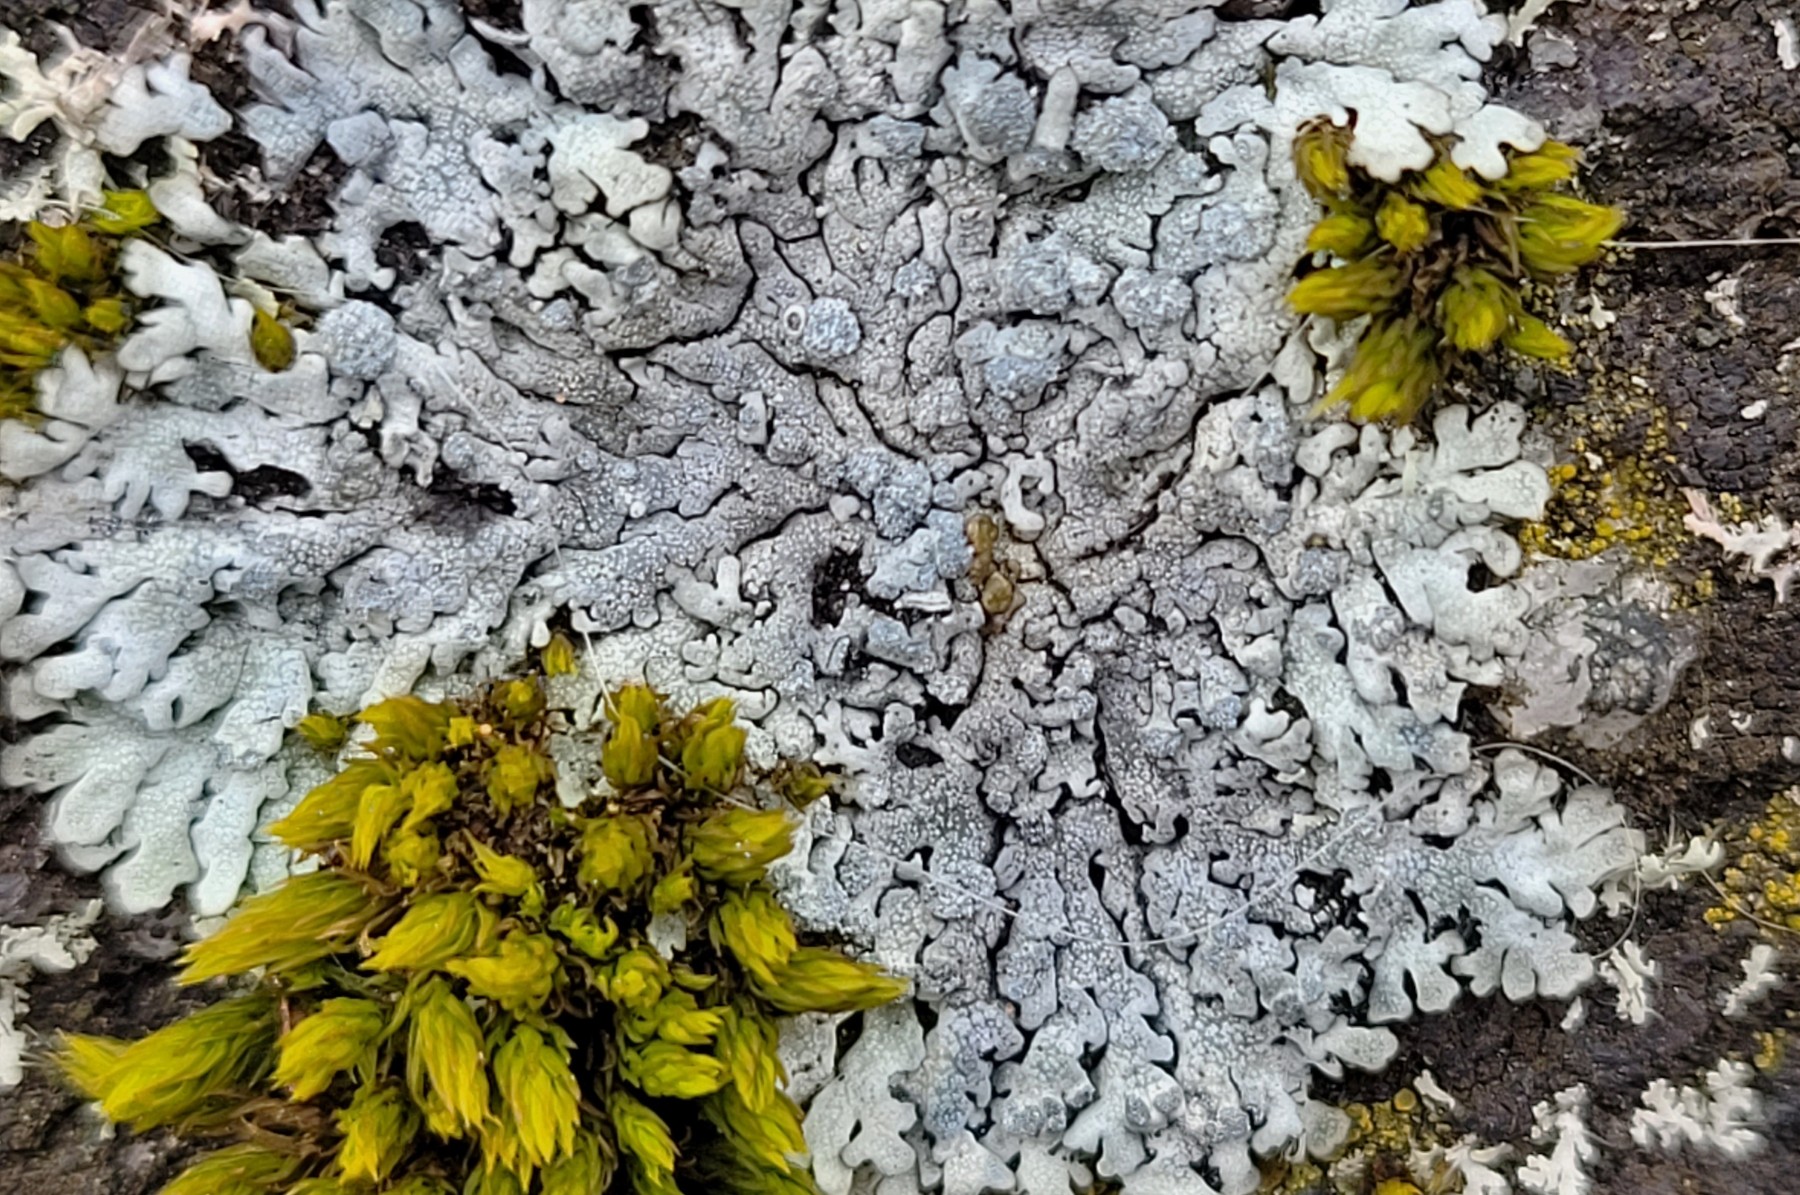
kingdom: Fungi
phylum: Ascomycota
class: Lecanoromycetes
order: Caliciales
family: Physciaceae
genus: Physcia
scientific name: Physcia caesia
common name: blågrå rosetlav
